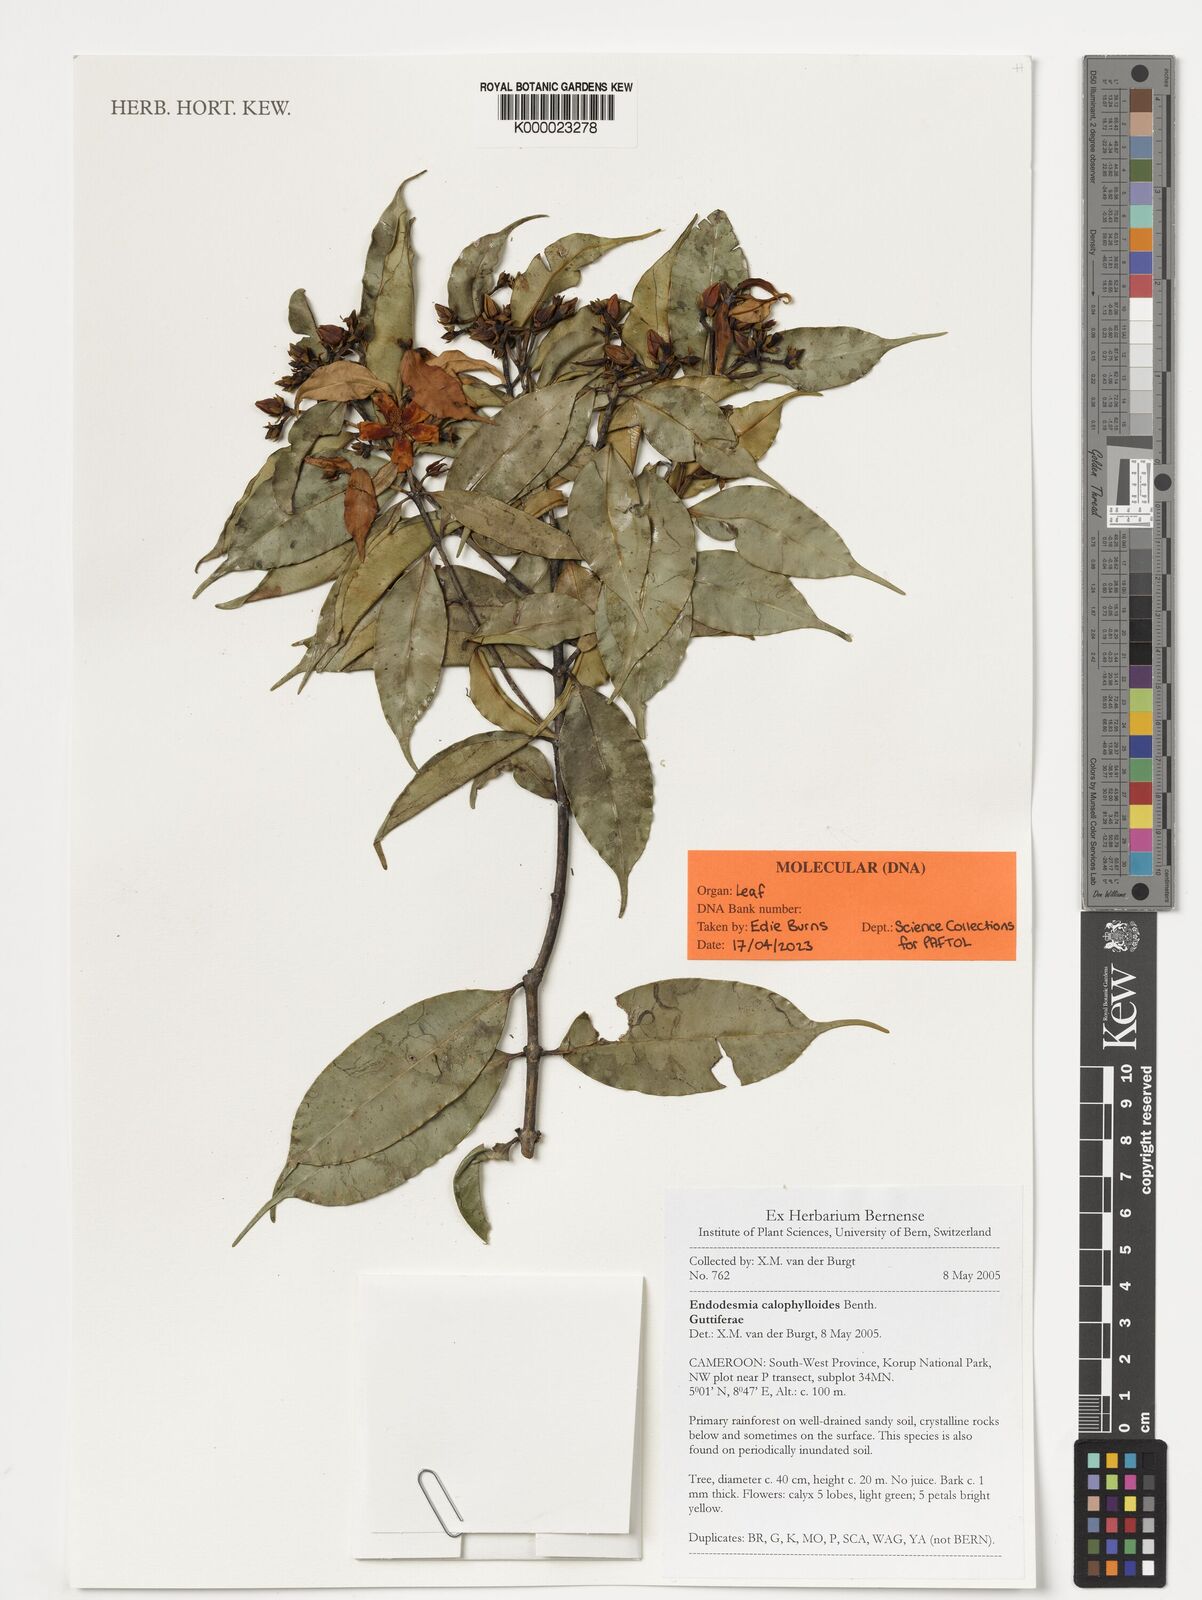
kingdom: Plantae
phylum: Tracheophyta
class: Magnoliopsida
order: Malpighiales
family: Calophyllaceae
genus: Endodesmia
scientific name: Endodesmia calophylloides
